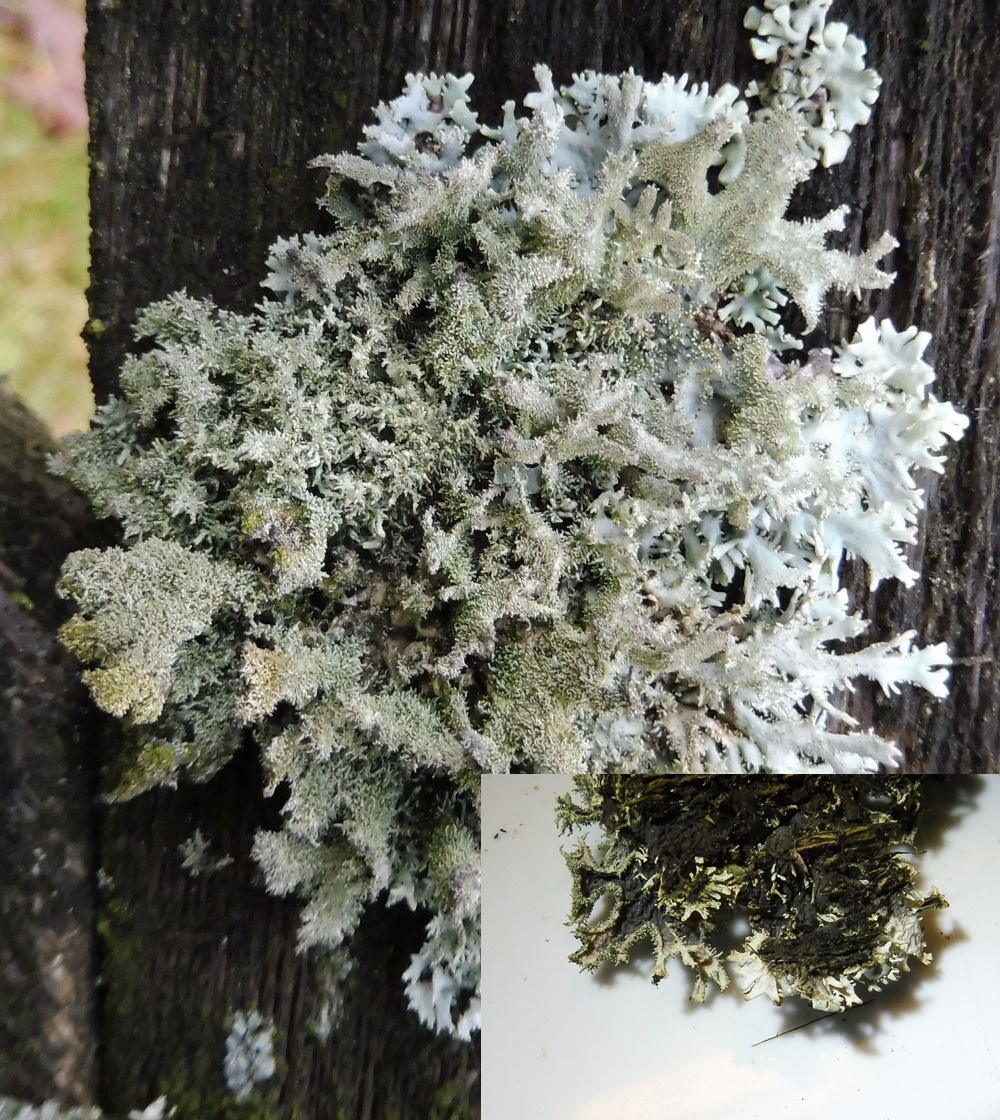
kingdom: Fungi
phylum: Ascomycota
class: Lecanoromycetes
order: Lecanorales
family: Parmeliaceae
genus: Pseudevernia
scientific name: Pseudevernia furfuracea
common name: grå fyrrelav
